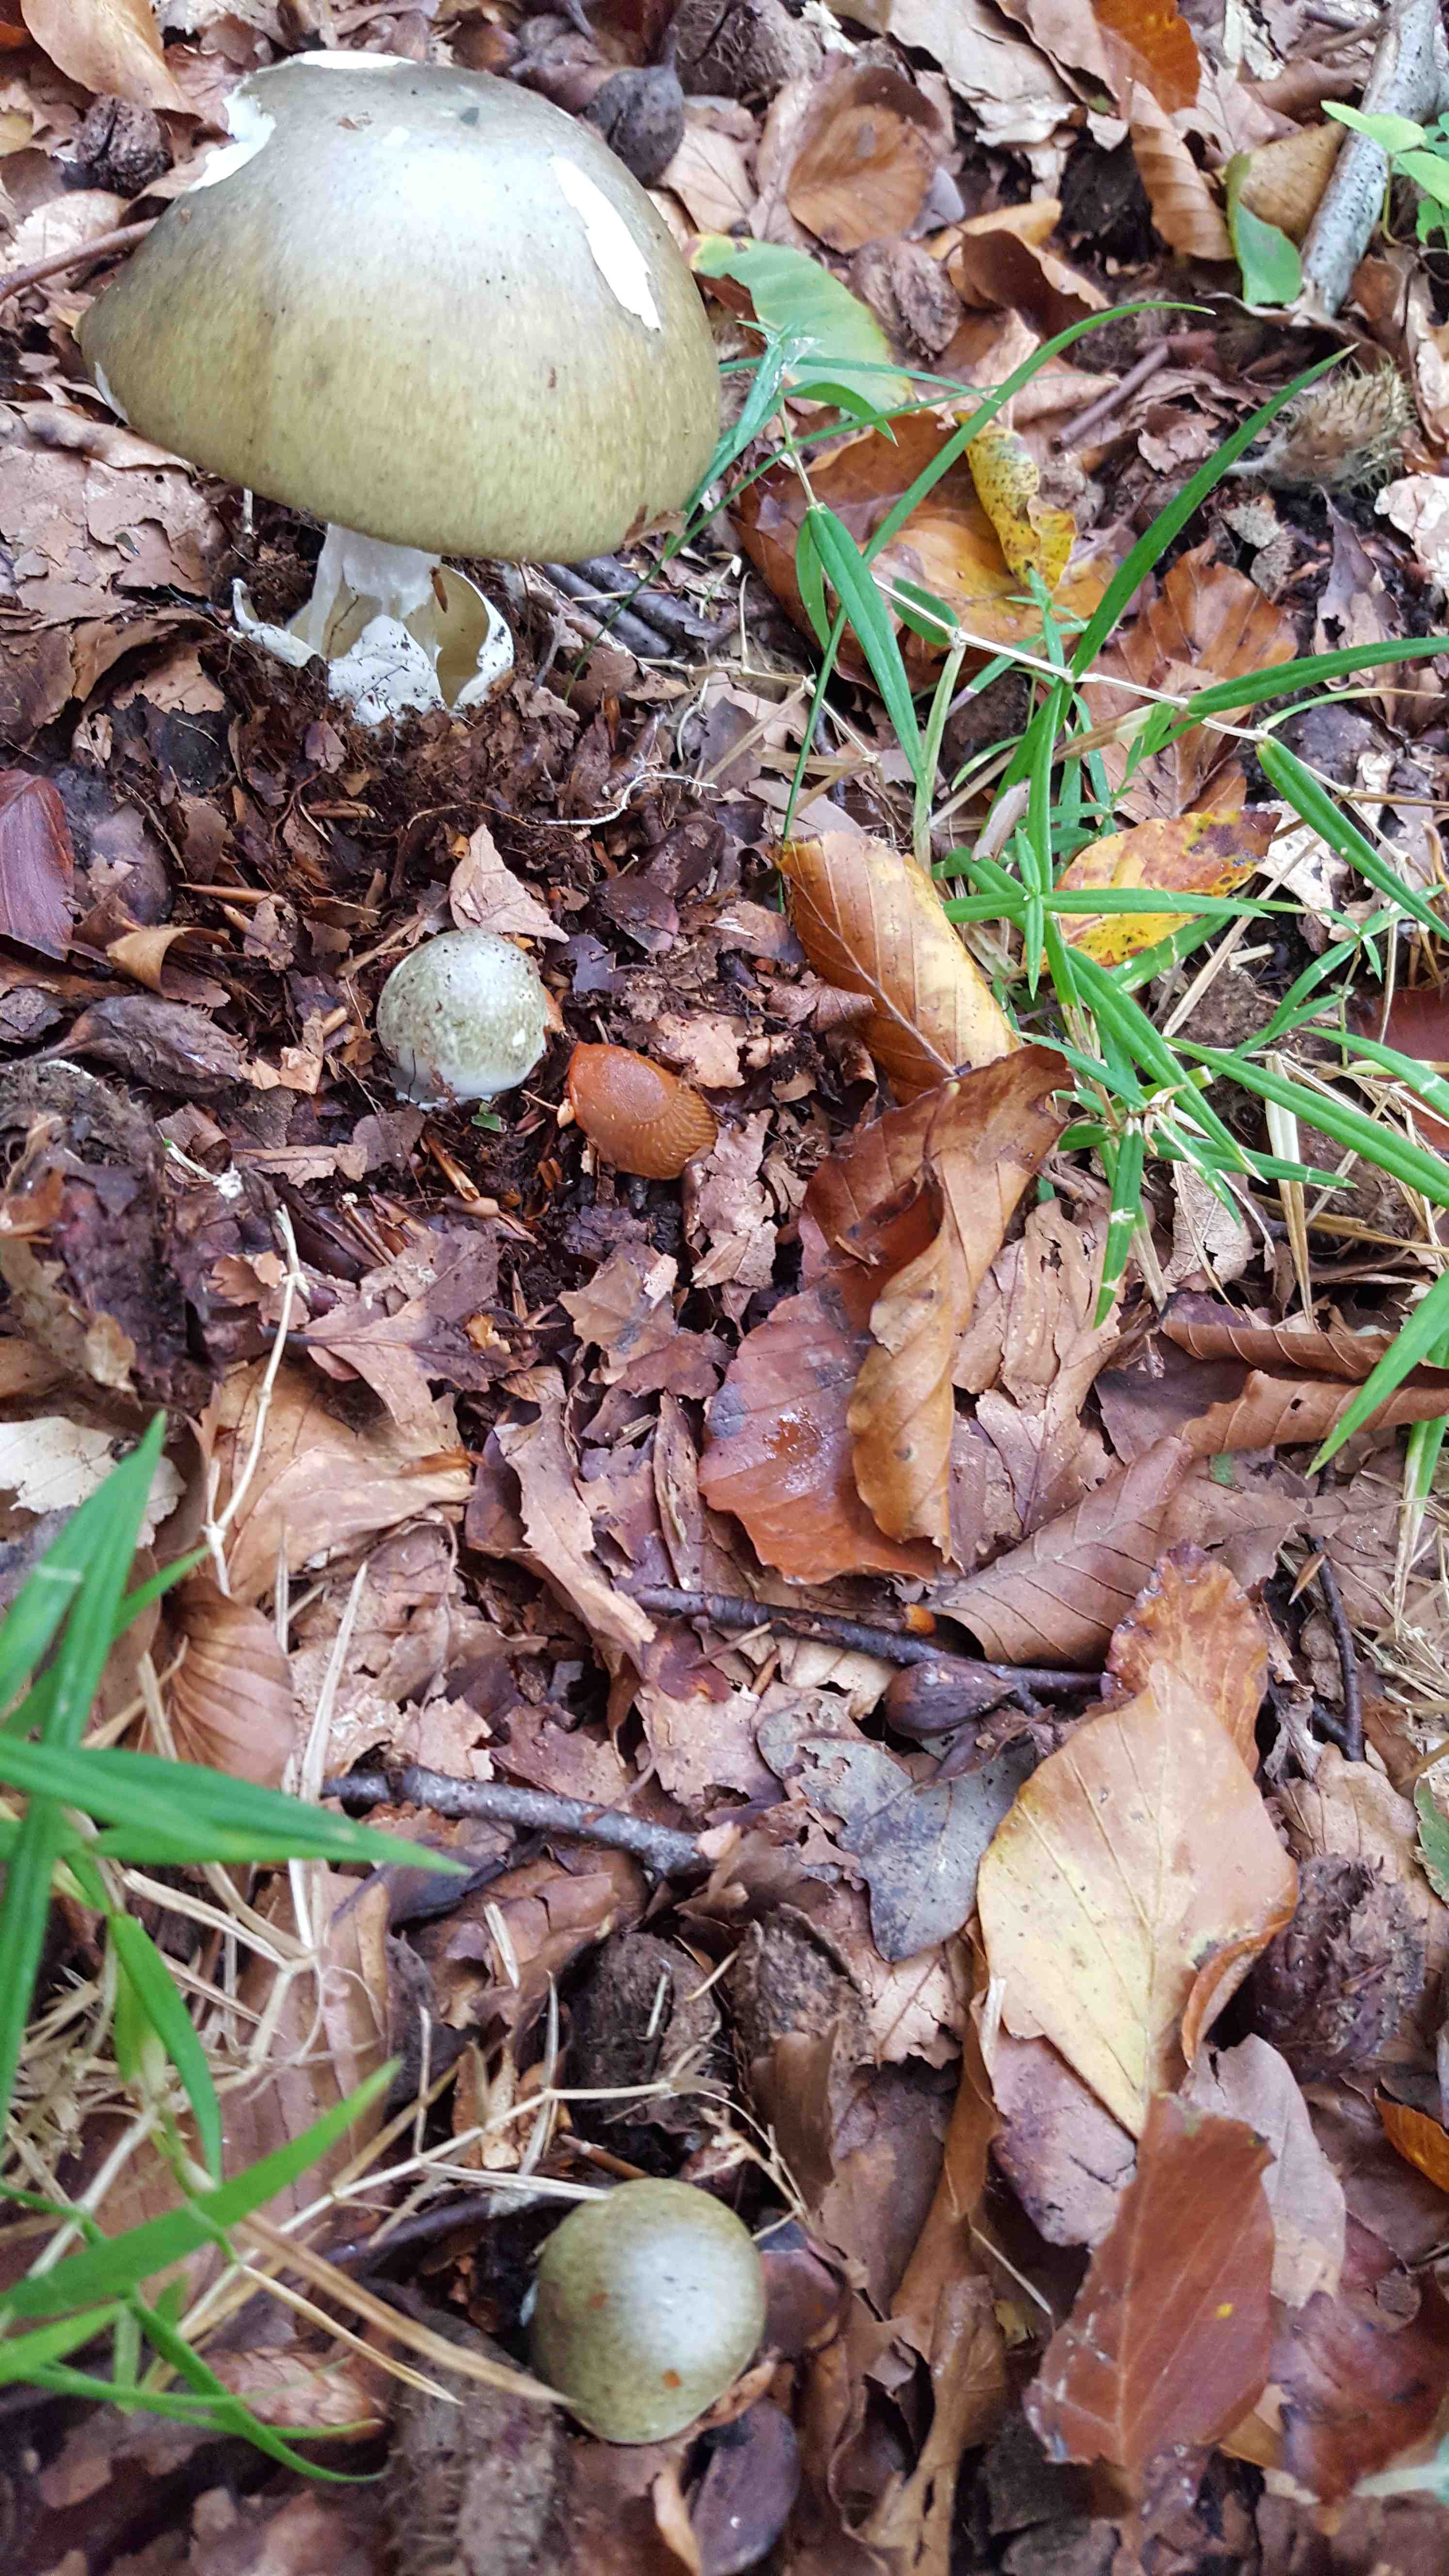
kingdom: Fungi
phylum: Basidiomycota
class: Agaricomycetes
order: Agaricales
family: Amanitaceae
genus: Amanita
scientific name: Amanita phalloides
